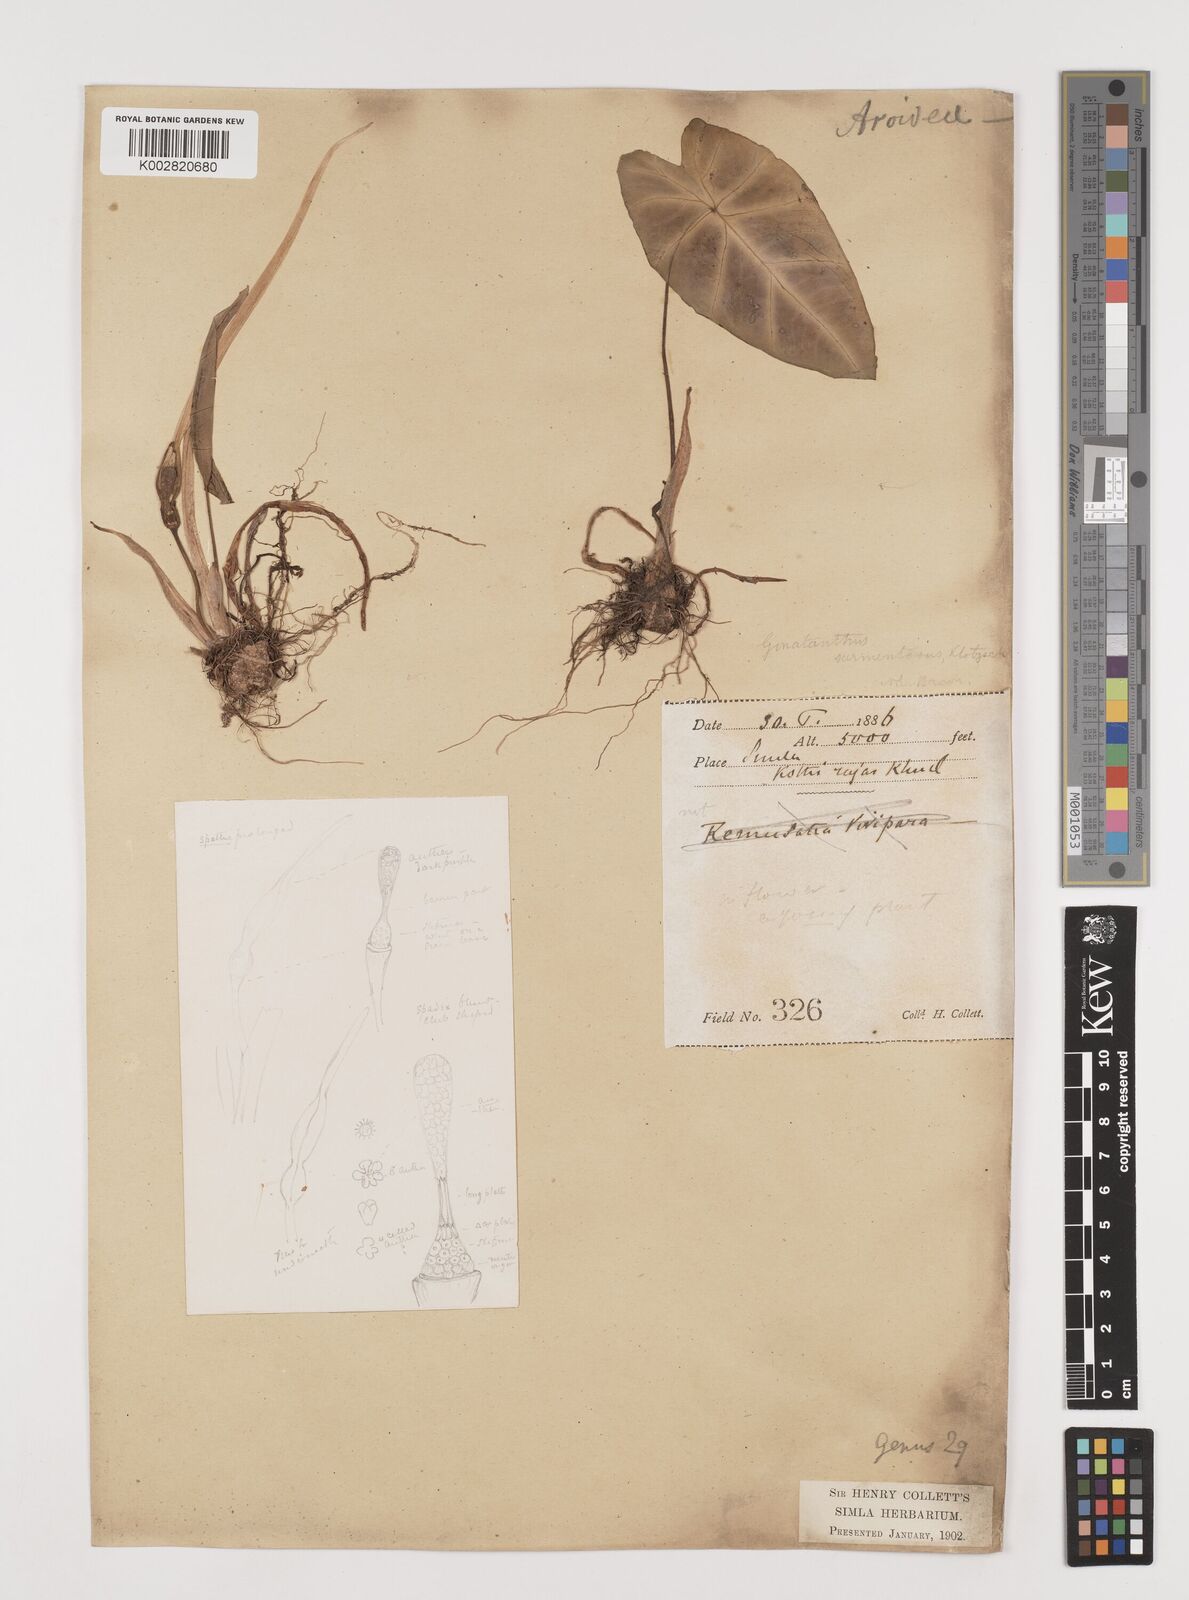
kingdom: Plantae
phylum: Tracheophyta
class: Liliopsida
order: Alismatales
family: Araceae
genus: Remusatia
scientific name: Remusatia pumila
